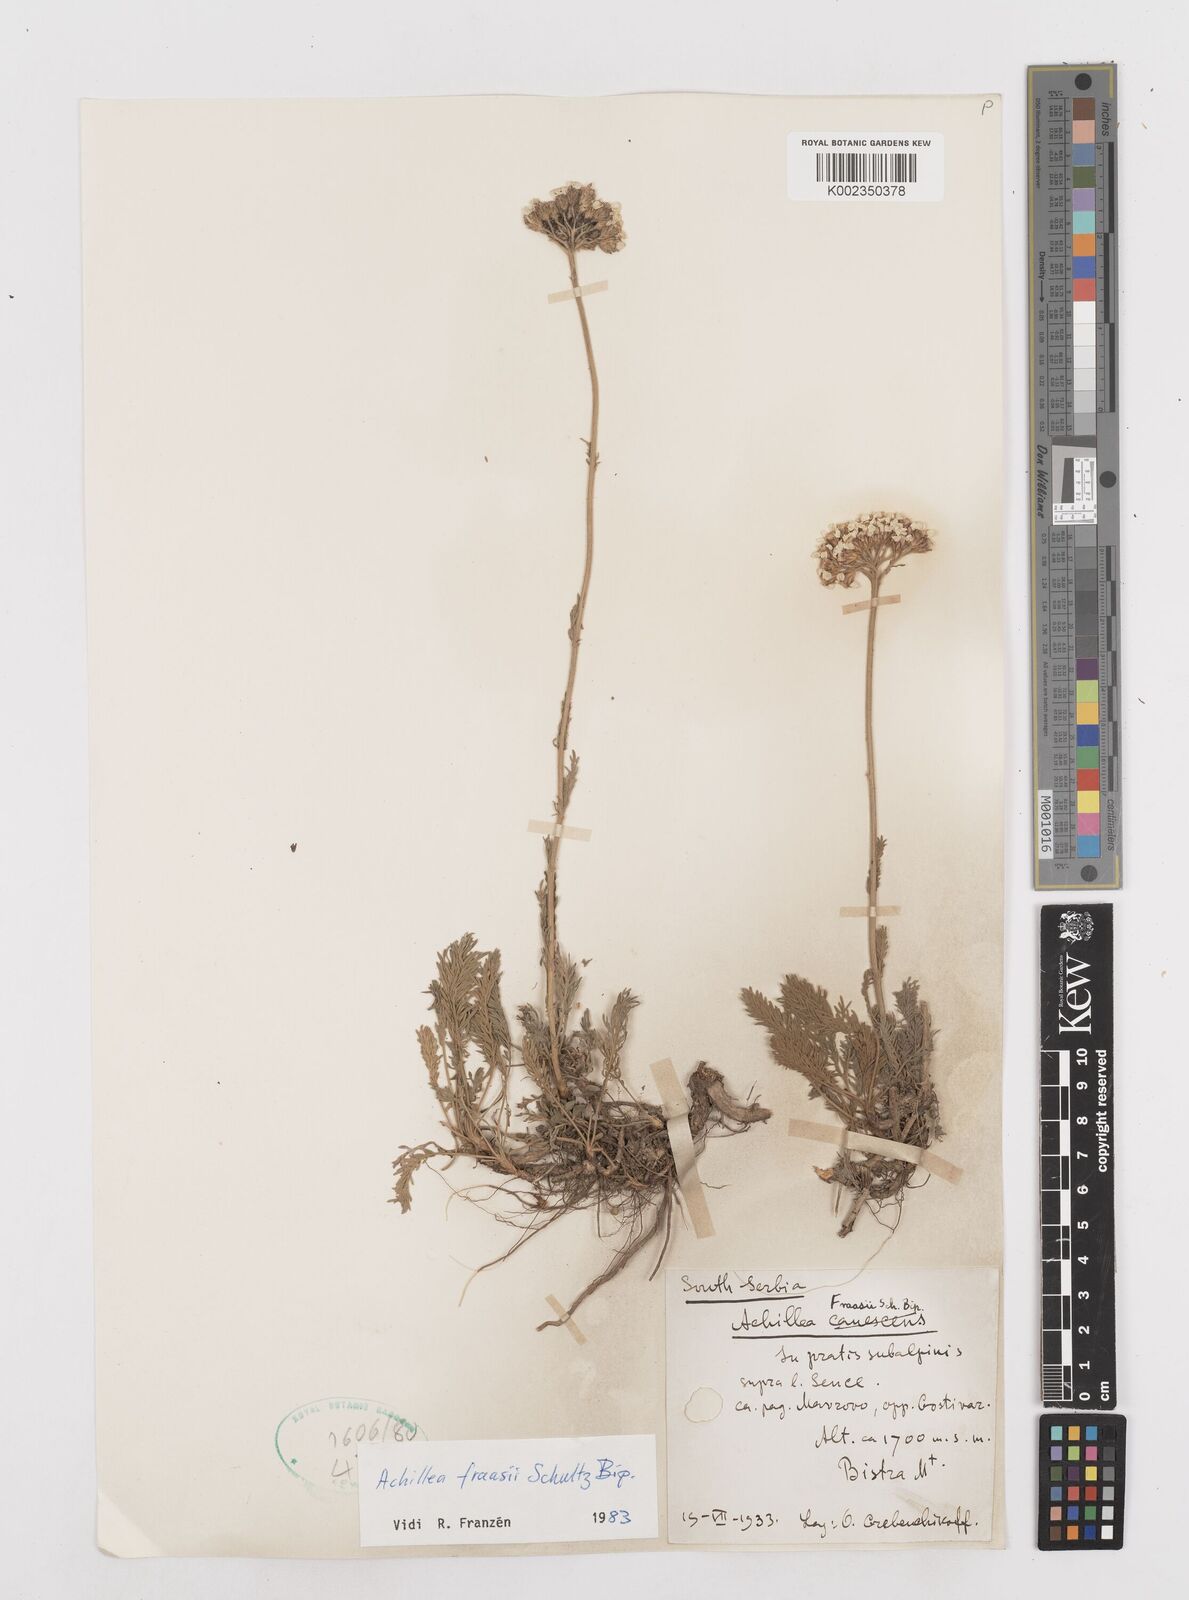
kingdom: Plantae
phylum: Tracheophyta
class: Magnoliopsida
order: Asterales
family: Asteraceae
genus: Achillea
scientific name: Achillea fraasii
